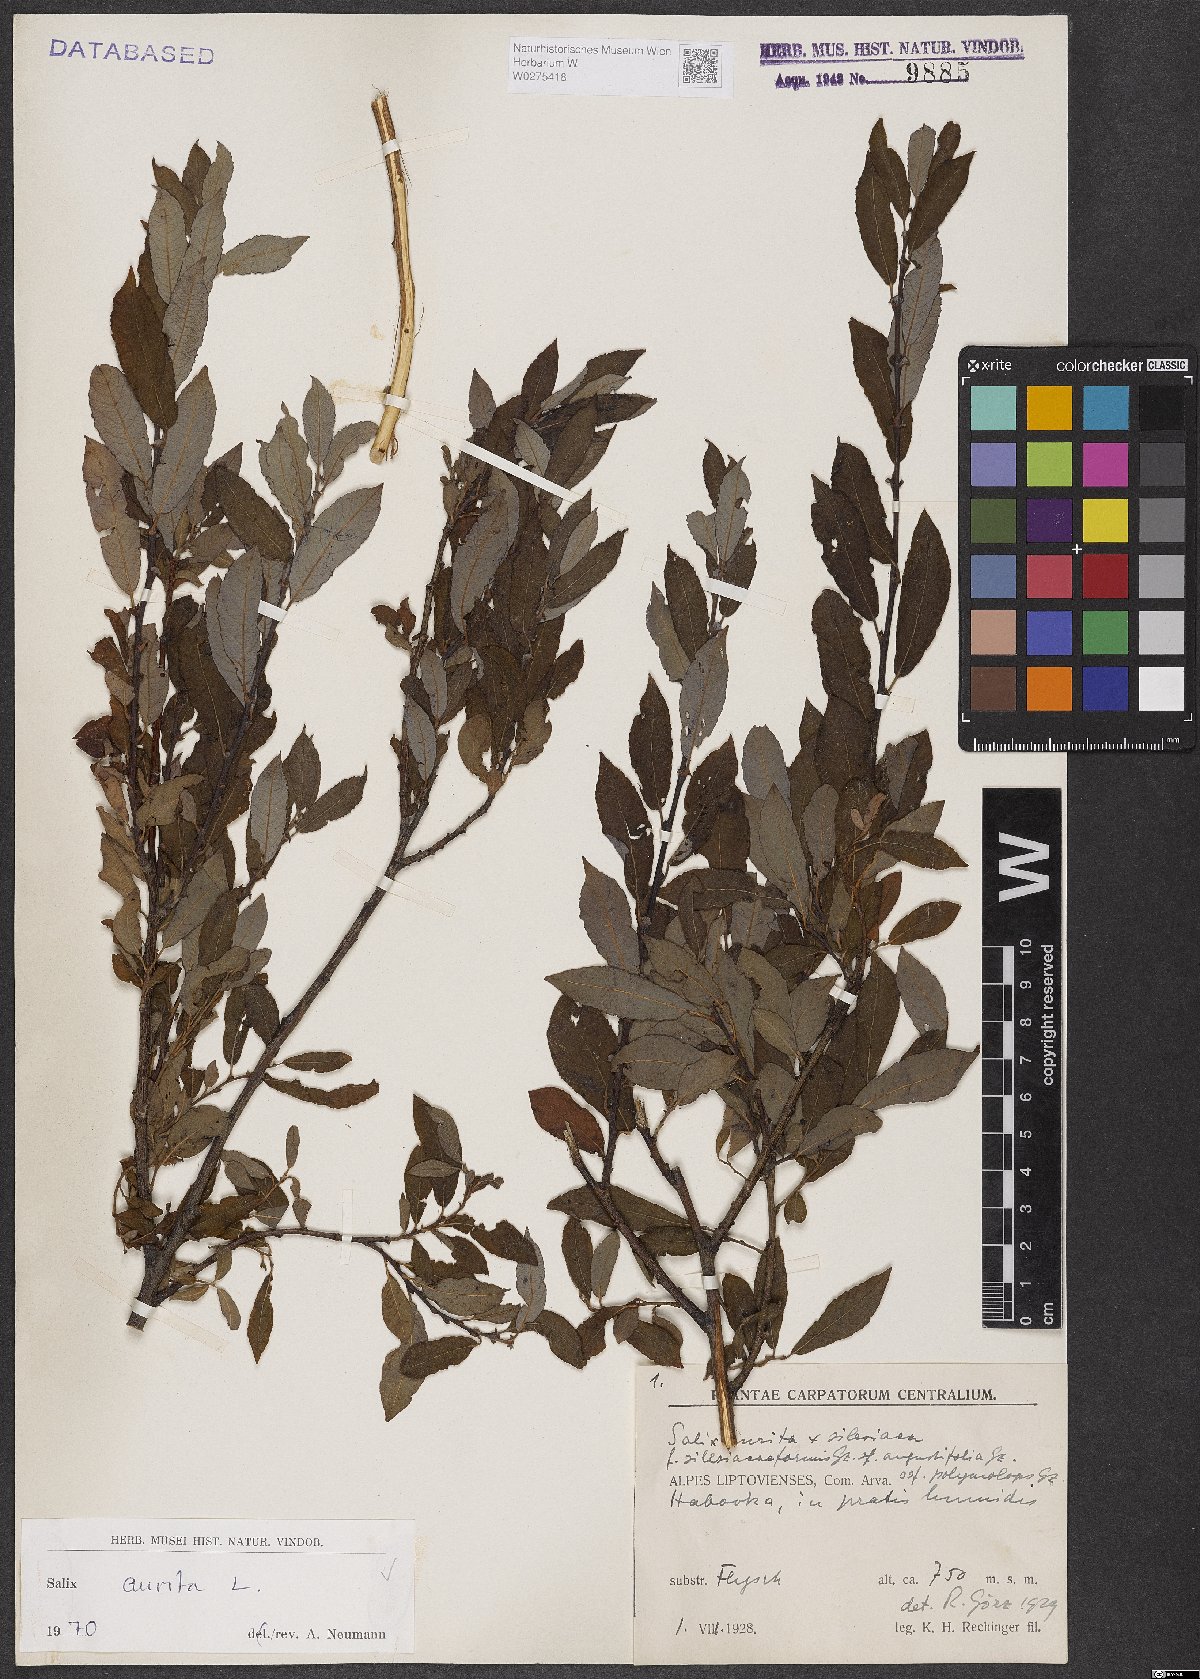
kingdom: Plantae
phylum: Tracheophyta
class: Magnoliopsida
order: Malpighiales
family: Salicaceae
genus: Salix
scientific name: Salix aurita
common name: Eared willow
